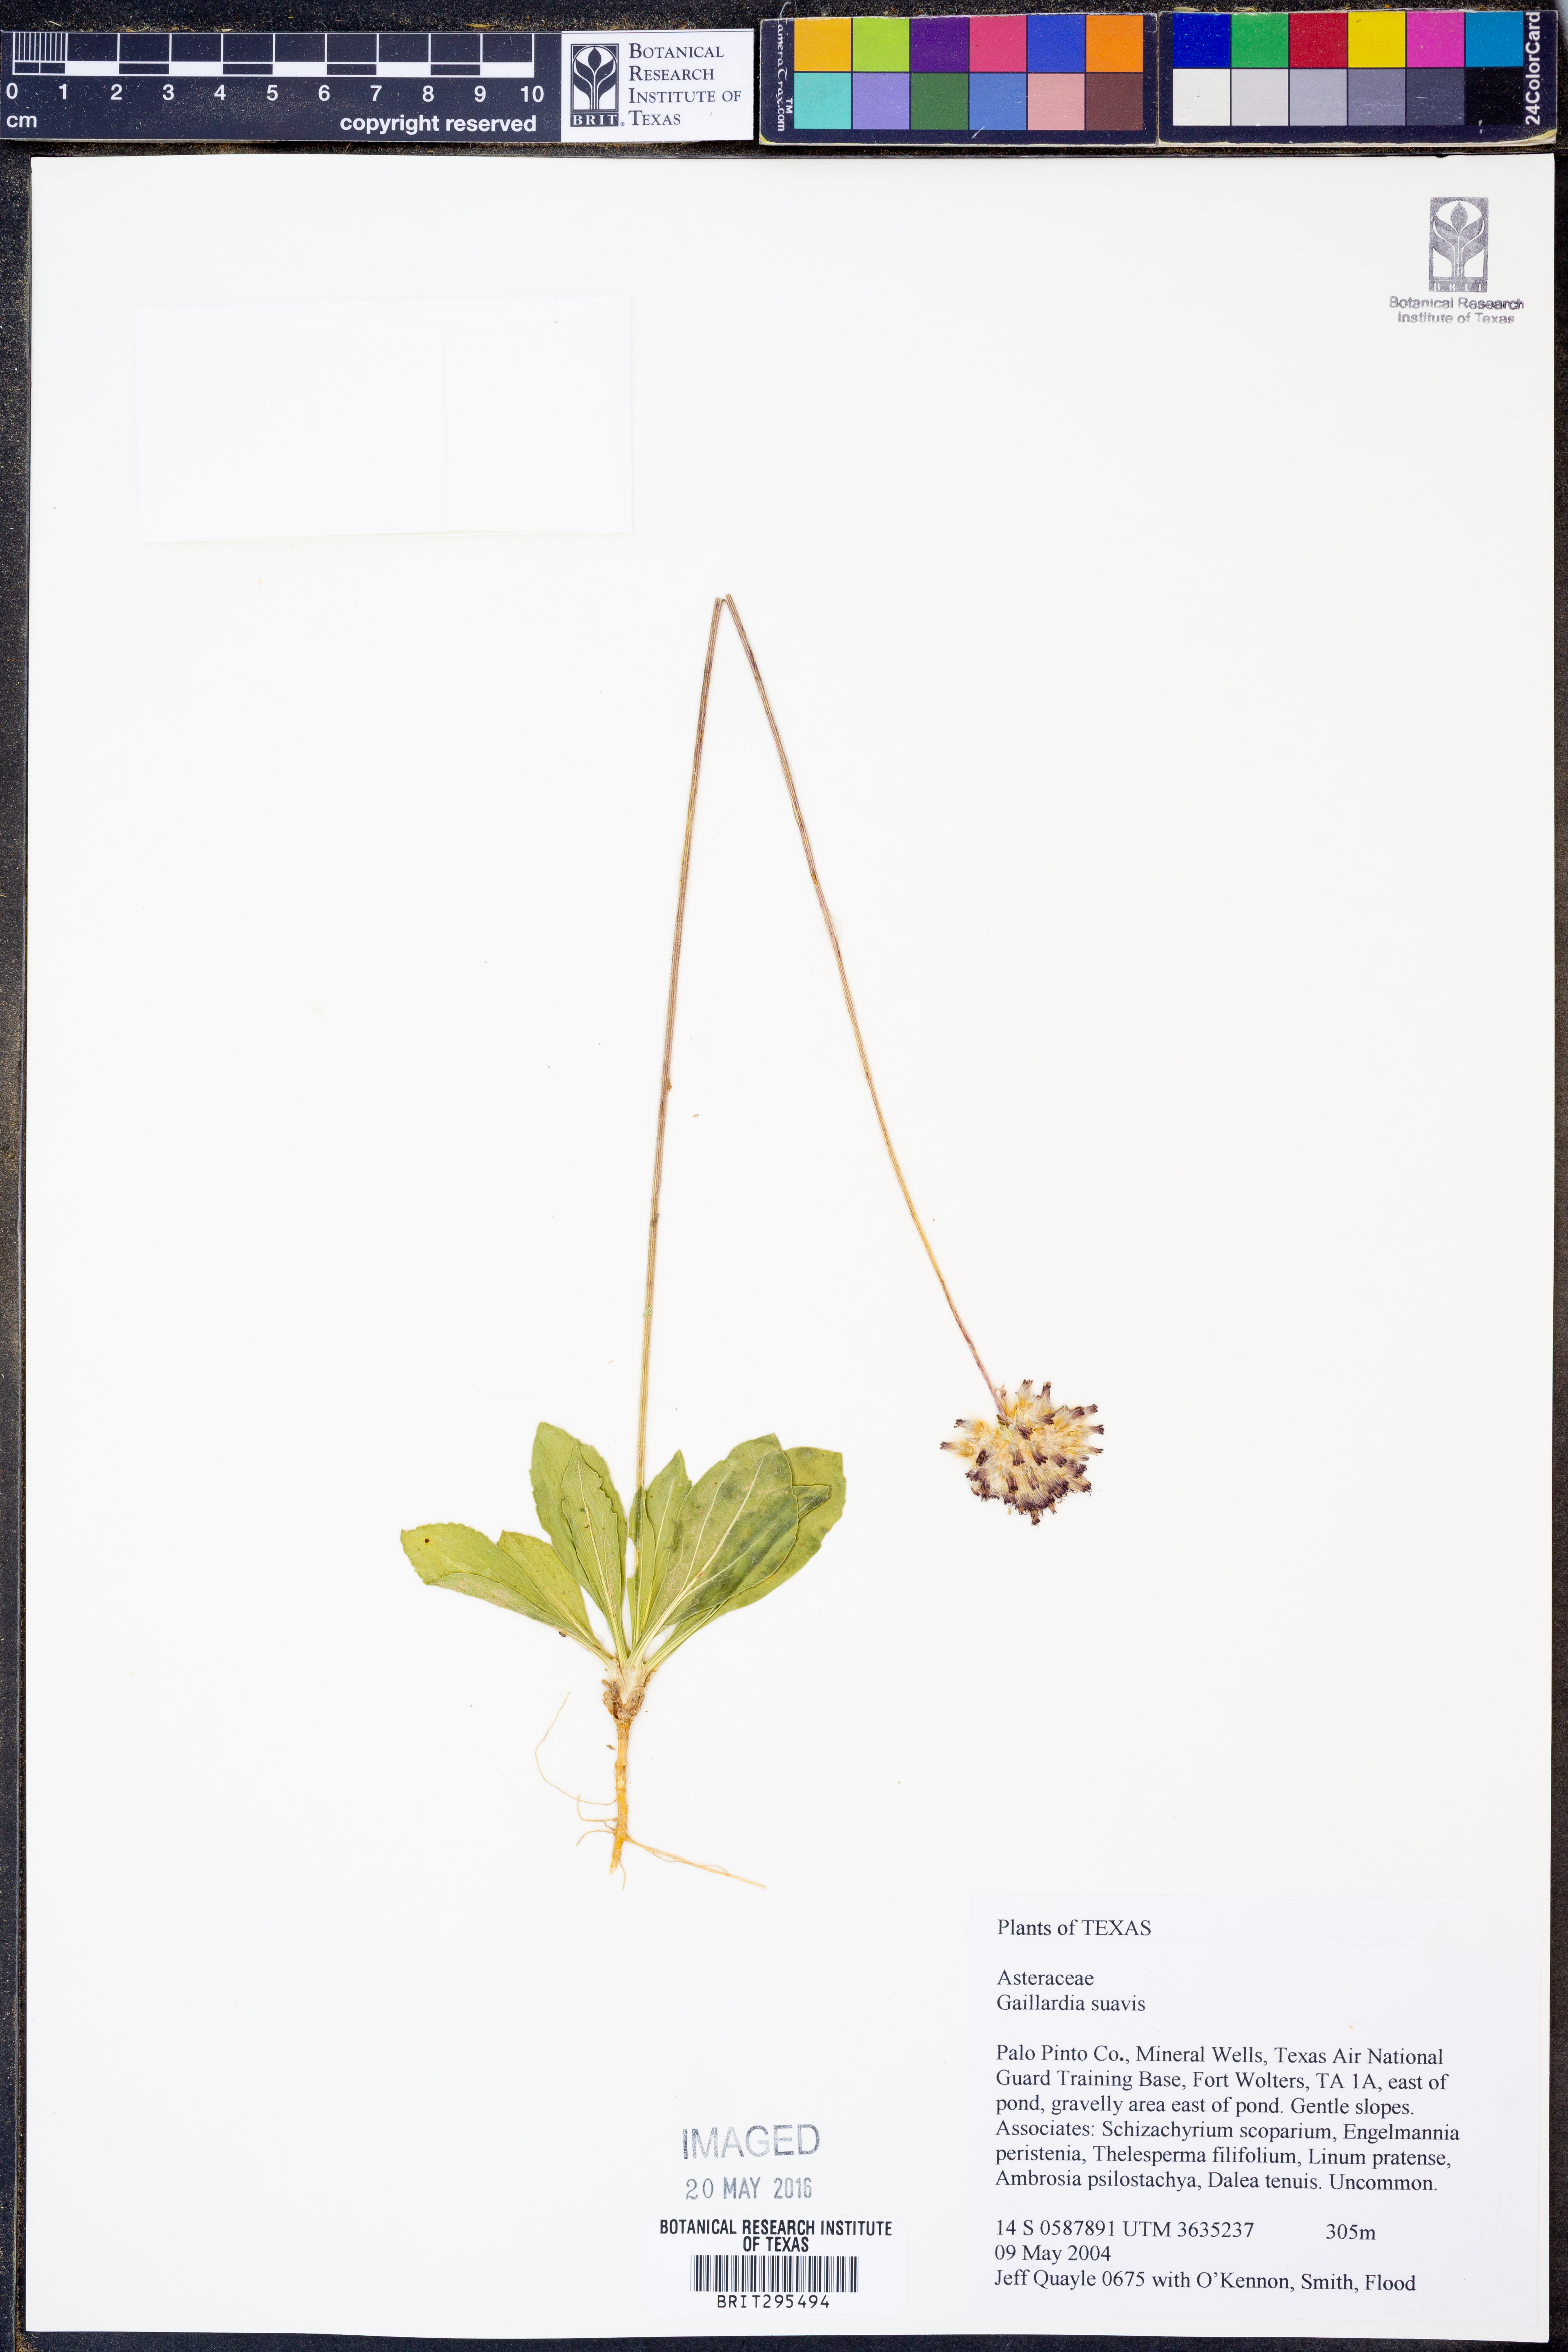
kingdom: Plantae
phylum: Tracheophyta
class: Magnoliopsida
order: Asterales
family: Asteraceae
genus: Gaillardia
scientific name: Gaillardia suavis
